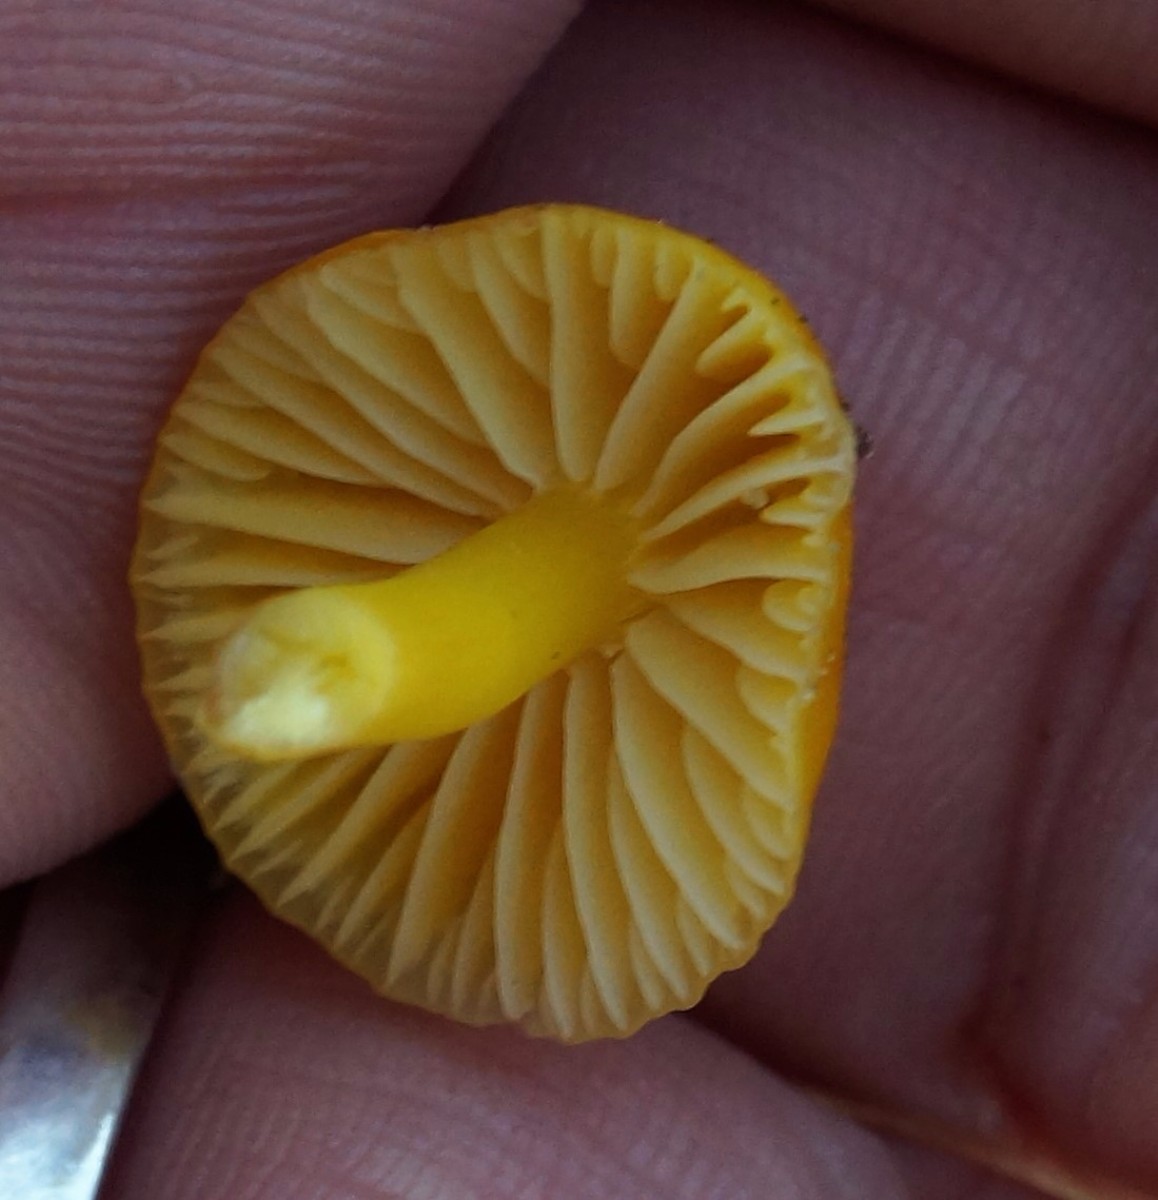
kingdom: Fungi
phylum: Basidiomycota
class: Agaricomycetes
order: Agaricales
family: Hygrophoraceae
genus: Hygrocybe
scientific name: Hygrocybe ceracea
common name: voksgul vokshat
